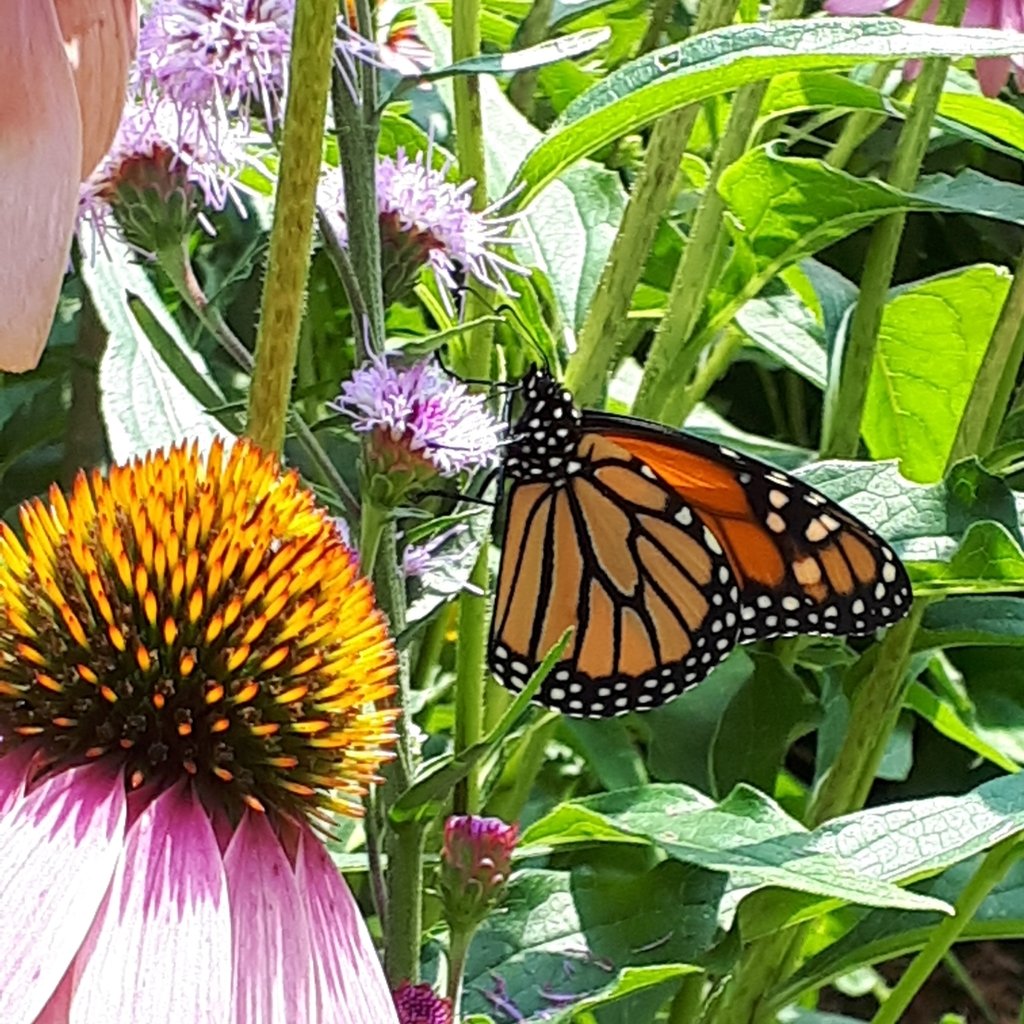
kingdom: Animalia
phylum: Arthropoda
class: Insecta
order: Lepidoptera
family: Nymphalidae
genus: Danaus
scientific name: Danaus plexippus
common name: Monarch
